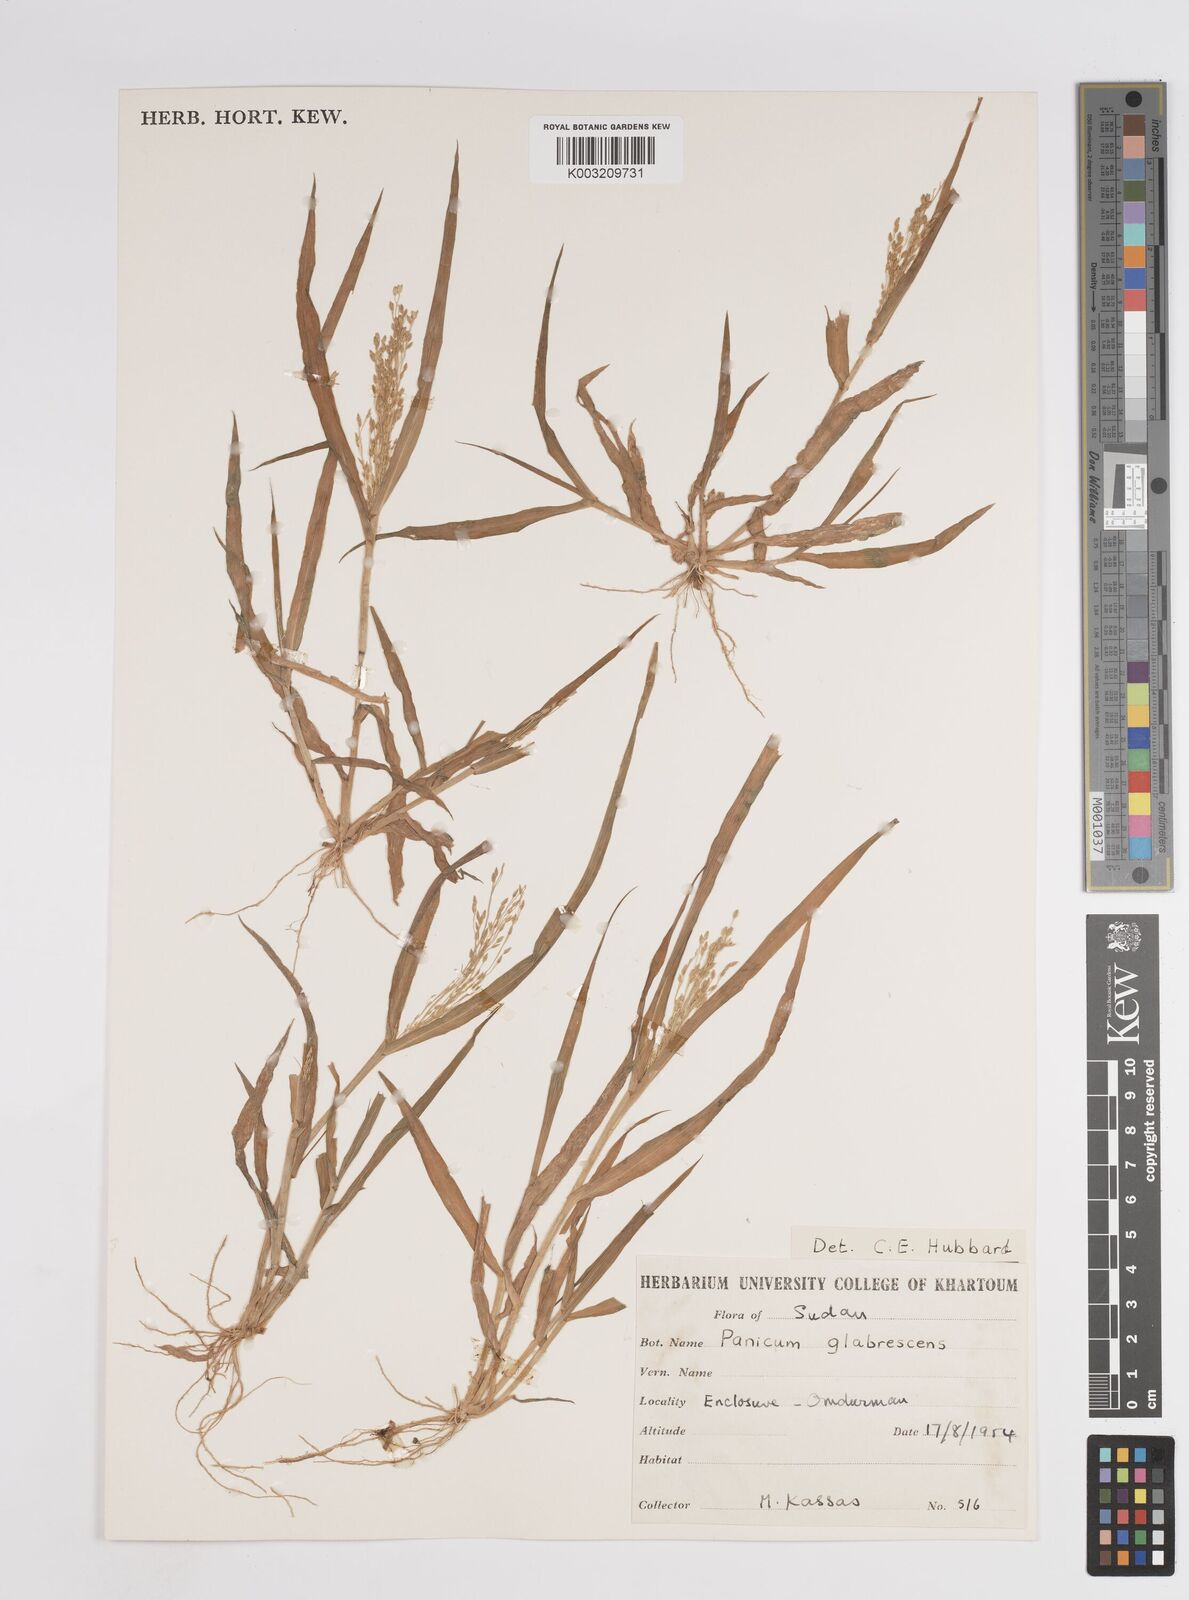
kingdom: Plantae
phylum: Tracheophyta
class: Liliopsida
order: Poales
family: Poaceae
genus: Panicum
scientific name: Panicum
